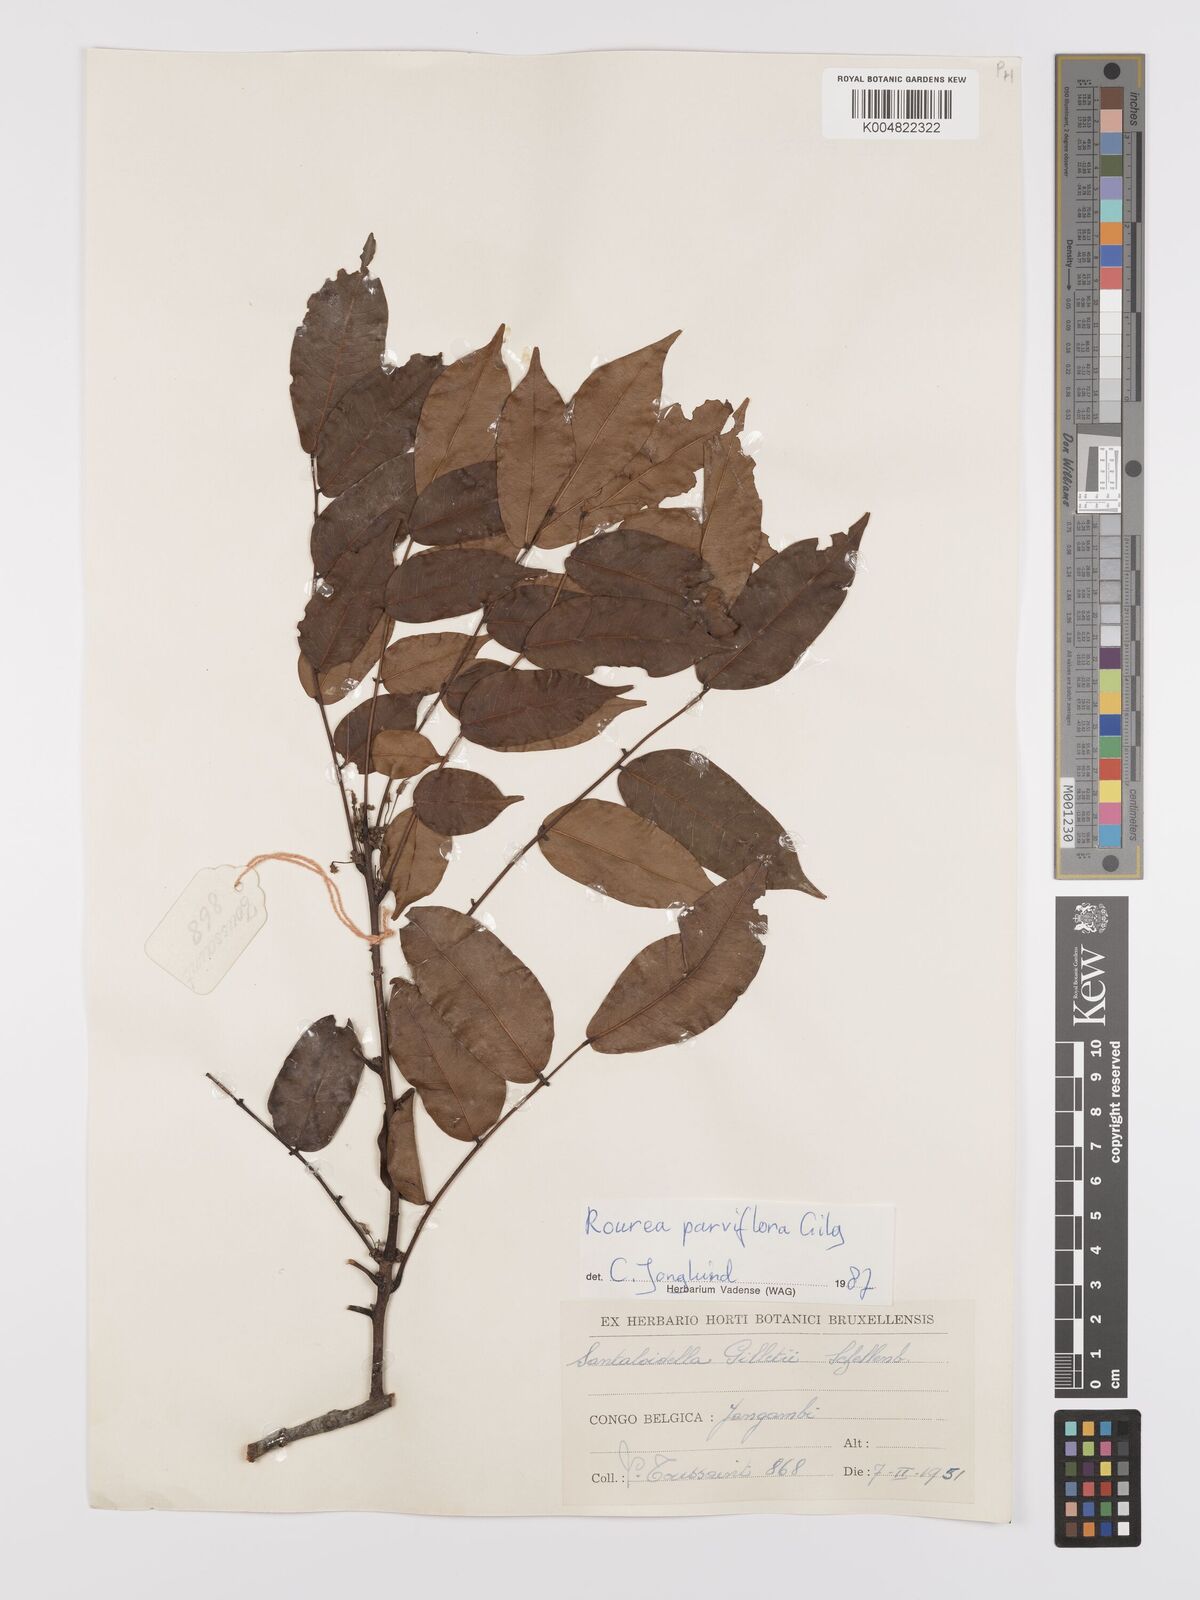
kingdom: Plantae
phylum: Tracheophyta
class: Magnoliopsida
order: Oxalidales
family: Connaraceae
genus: Rourea
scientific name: Rourea
